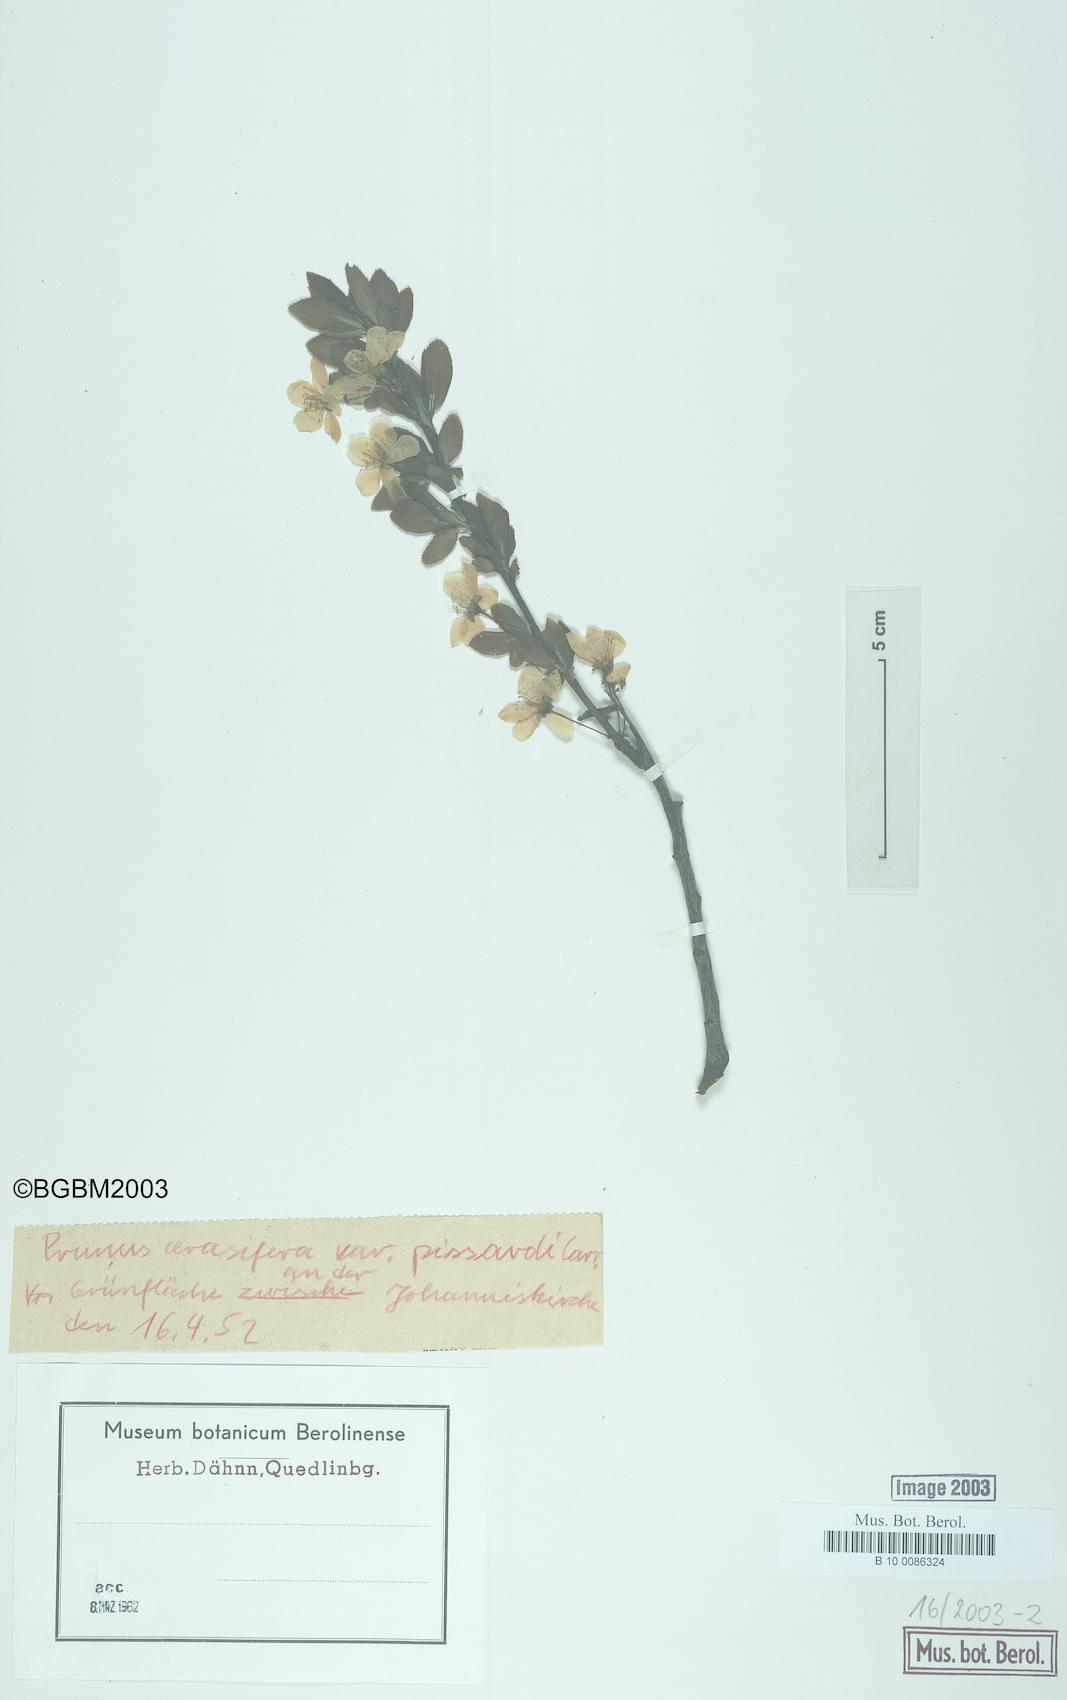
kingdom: Plantae
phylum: Tracheophyta
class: Magnoliopsida
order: Rosales
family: Rosaceae
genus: Prunus
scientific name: Prunus cerasifera
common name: Cherry plum
